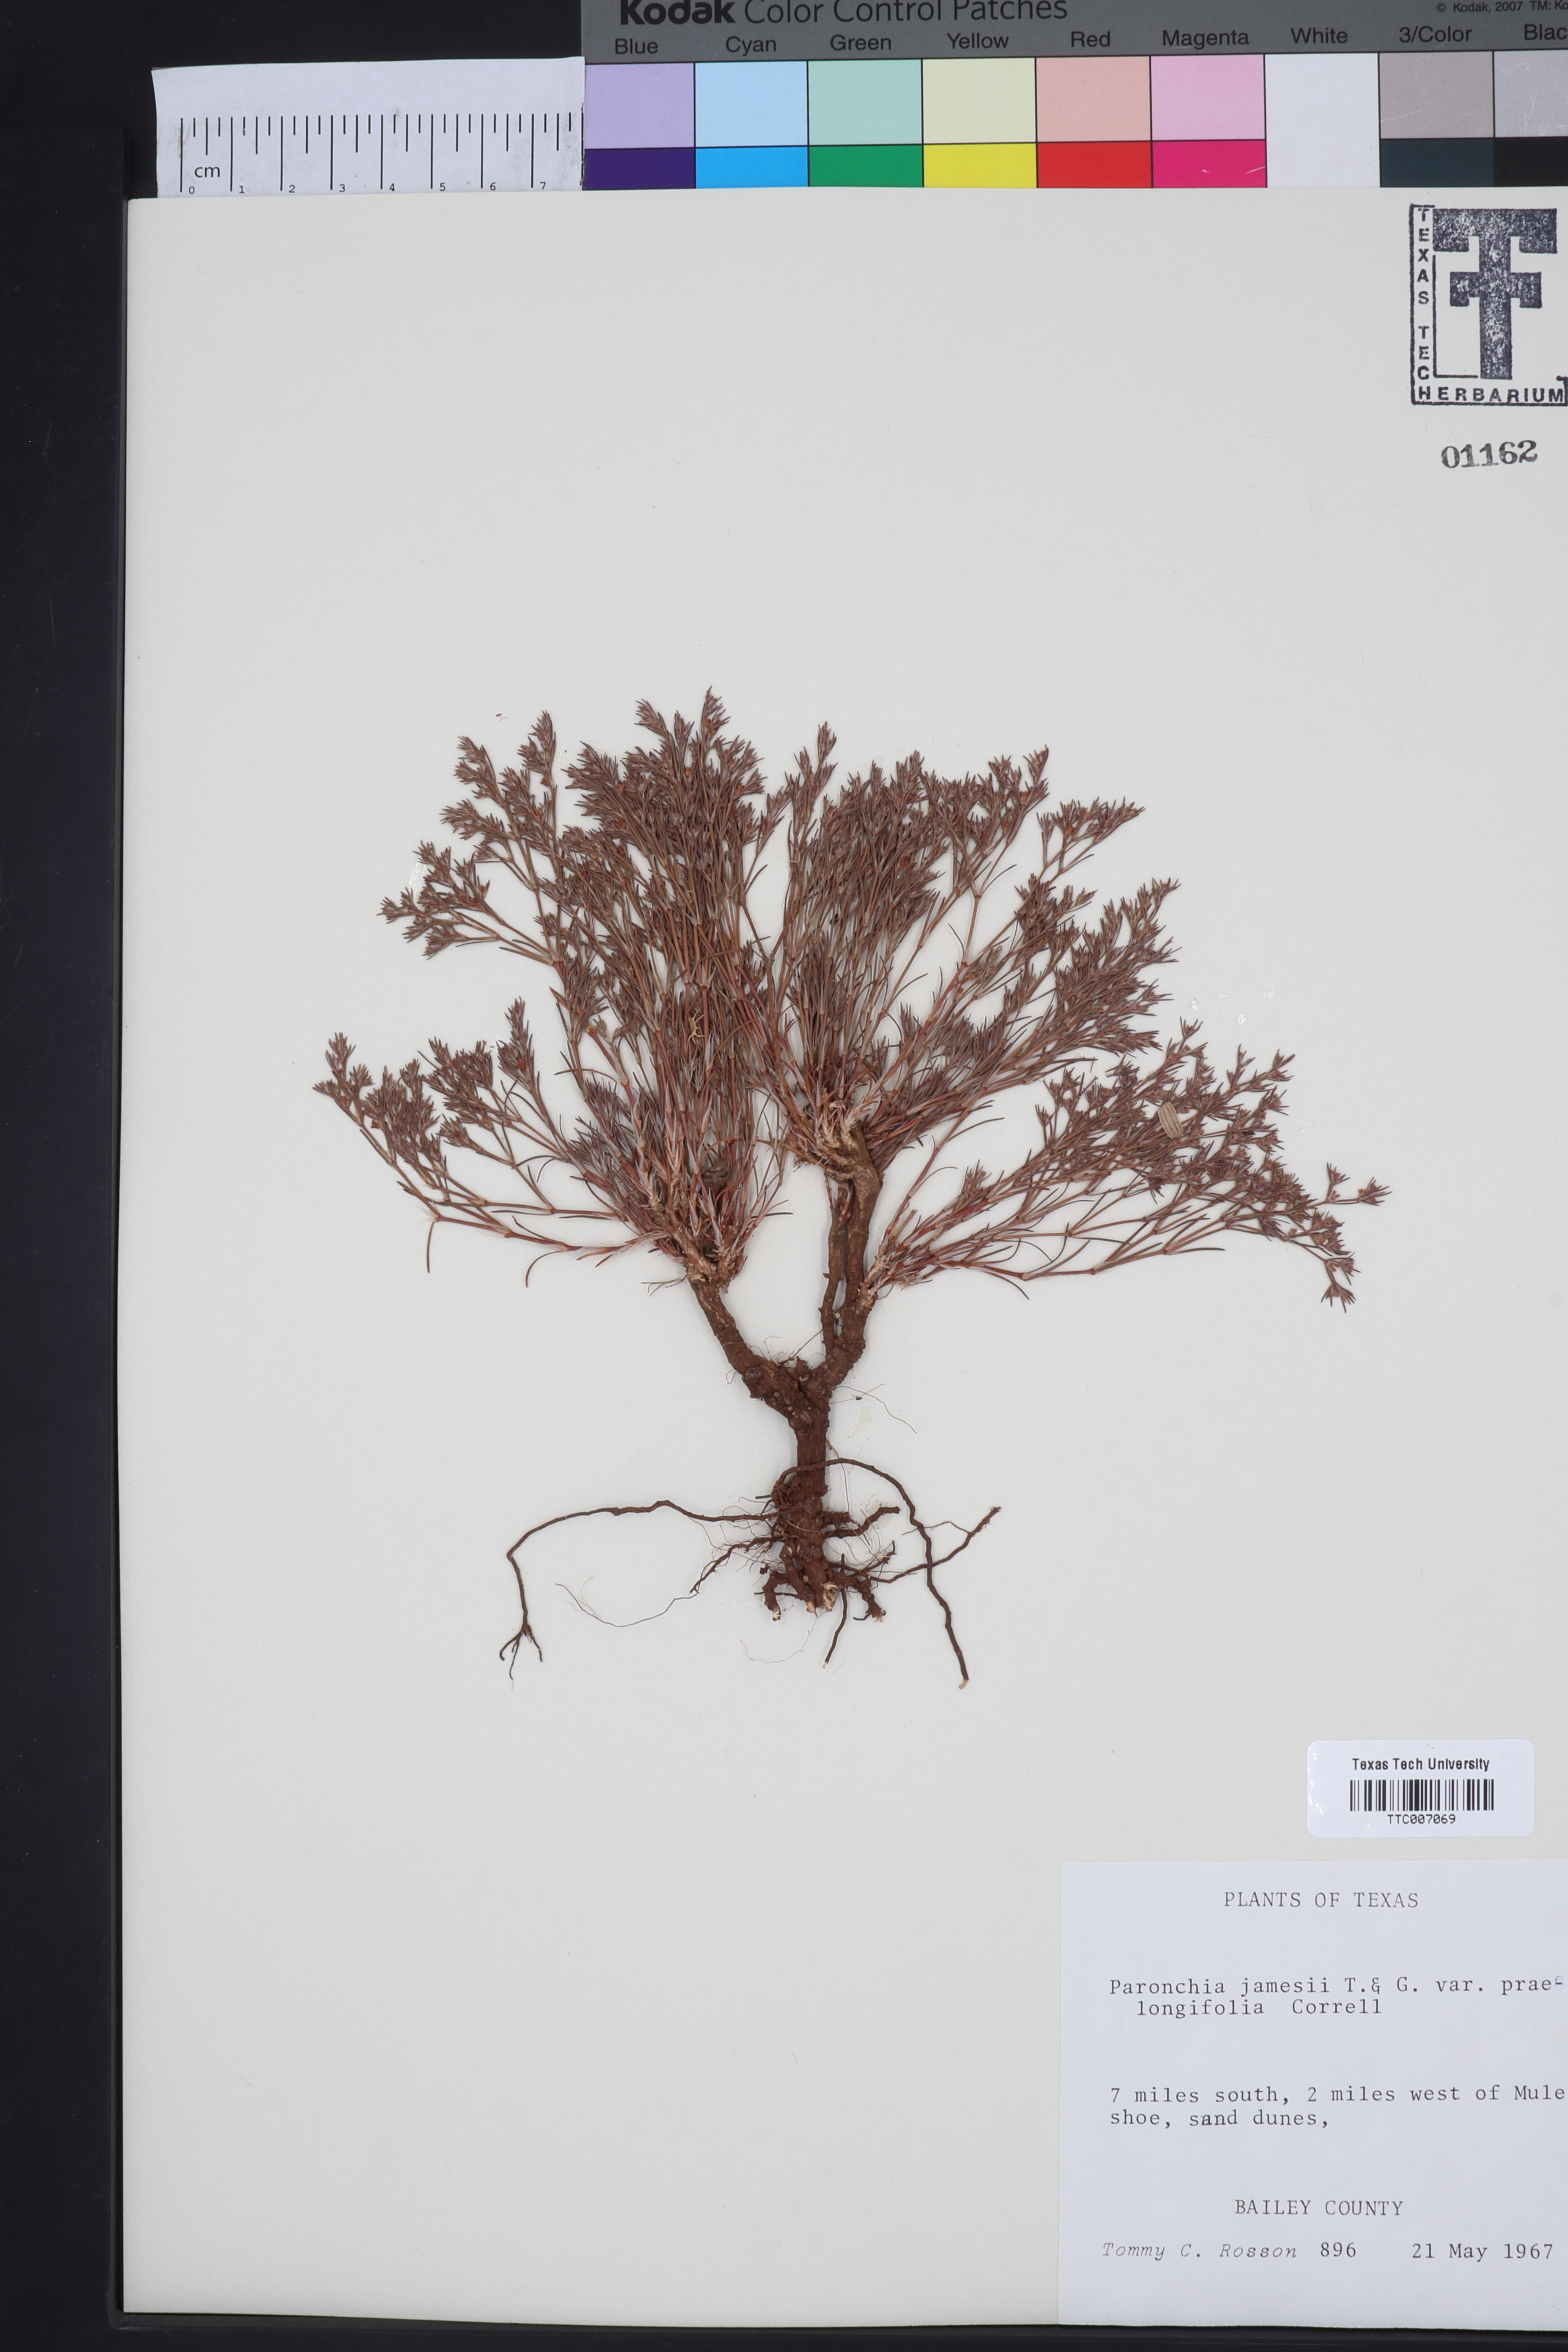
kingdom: Plantae
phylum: Tracheophyta
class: Magnoliopsida
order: Caryophyllales
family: Caryophyllaceae
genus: Paronychia
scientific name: Paronychia jamesii
